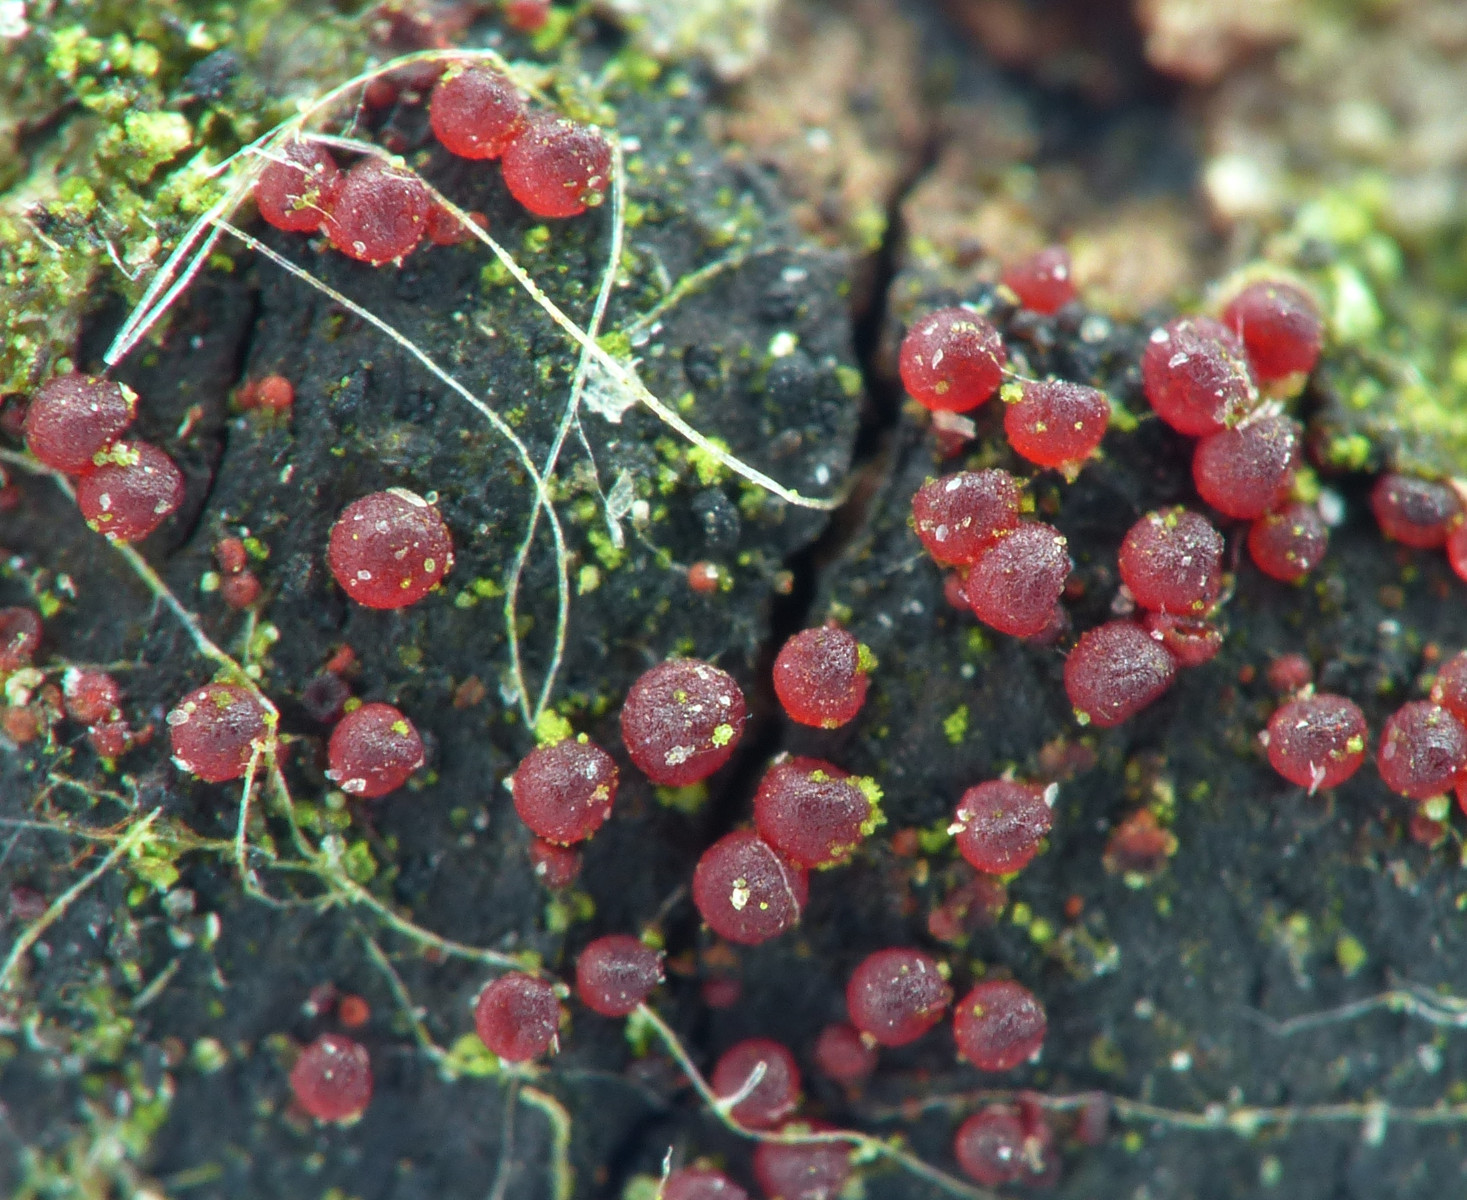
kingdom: Fungi
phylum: Ascomycota
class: Sordariomycetes
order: Hypocreales
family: Nectriaceae
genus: Dialonectria
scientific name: Dialonectria diatrypicola
